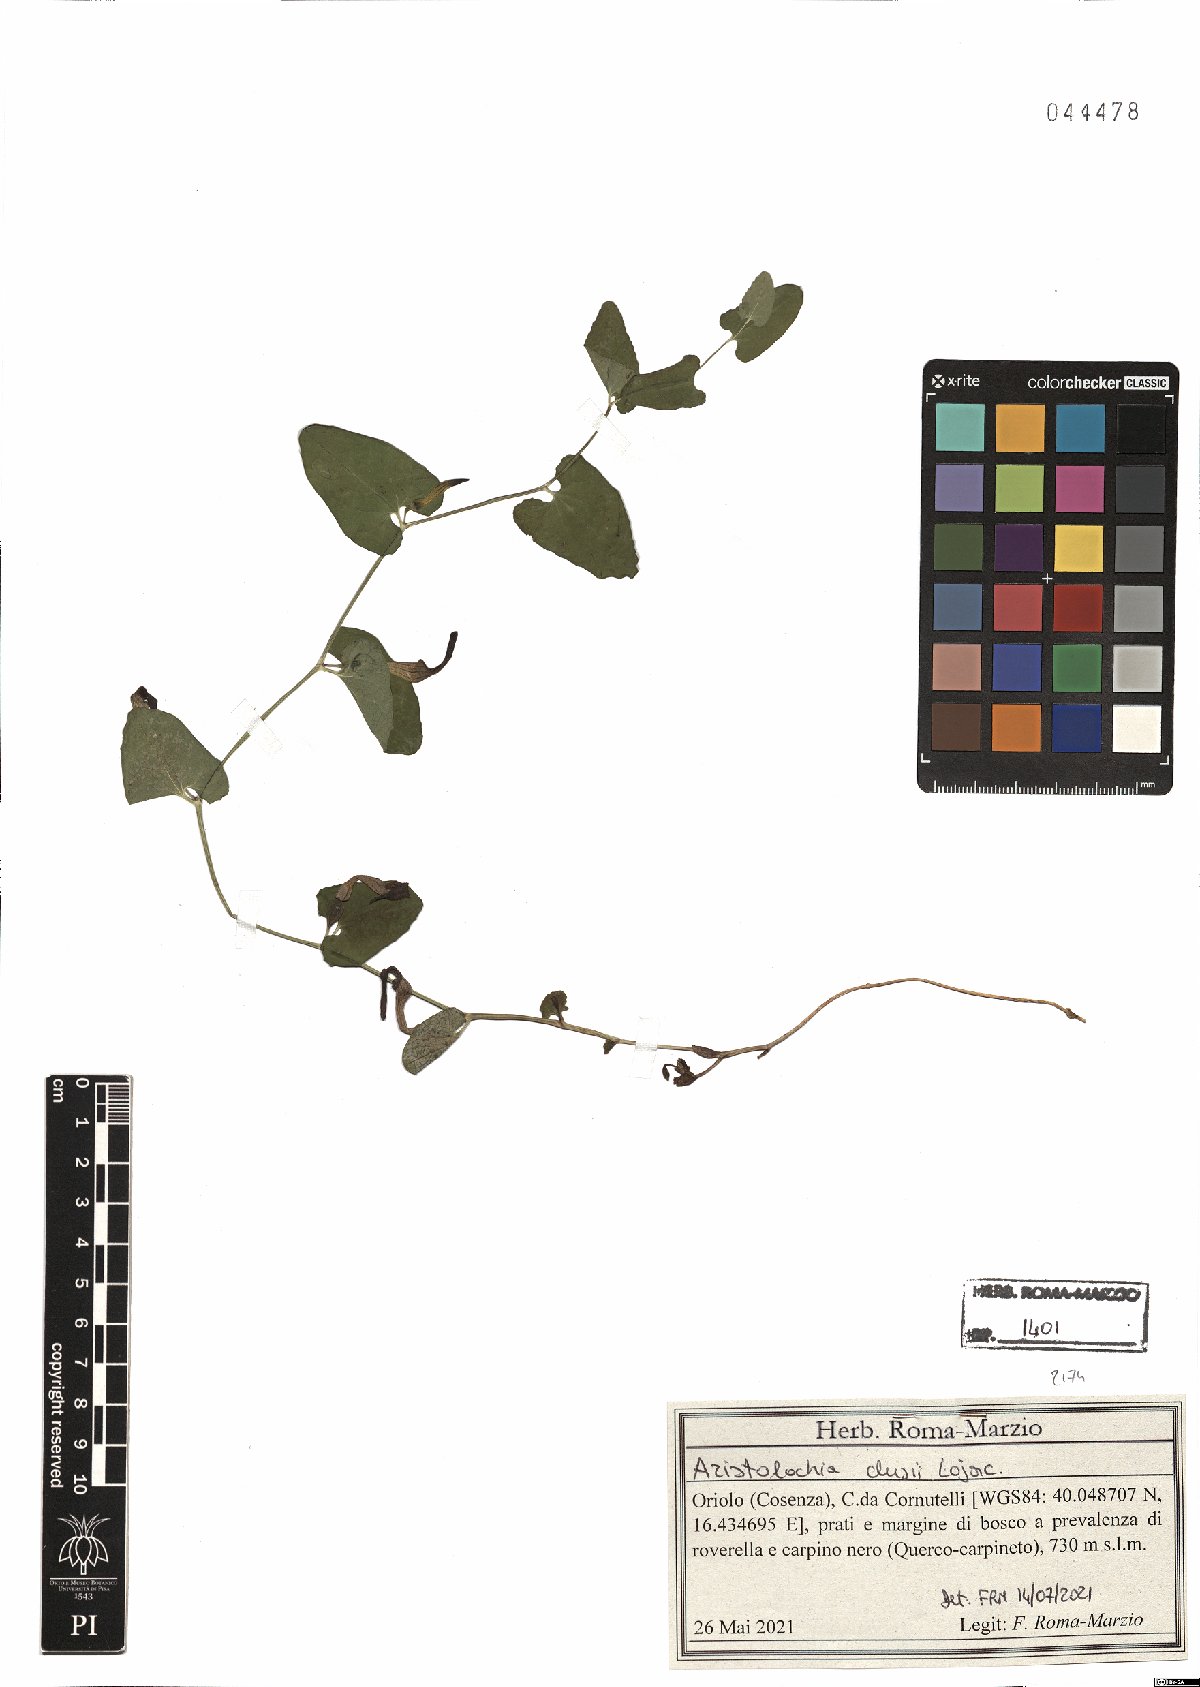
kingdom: Plantae
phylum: Tracheophyta
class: Magnoliopsida
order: Piperales
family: Aristolochiaceae
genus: Aristolochia
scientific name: Aristolochia clusii
